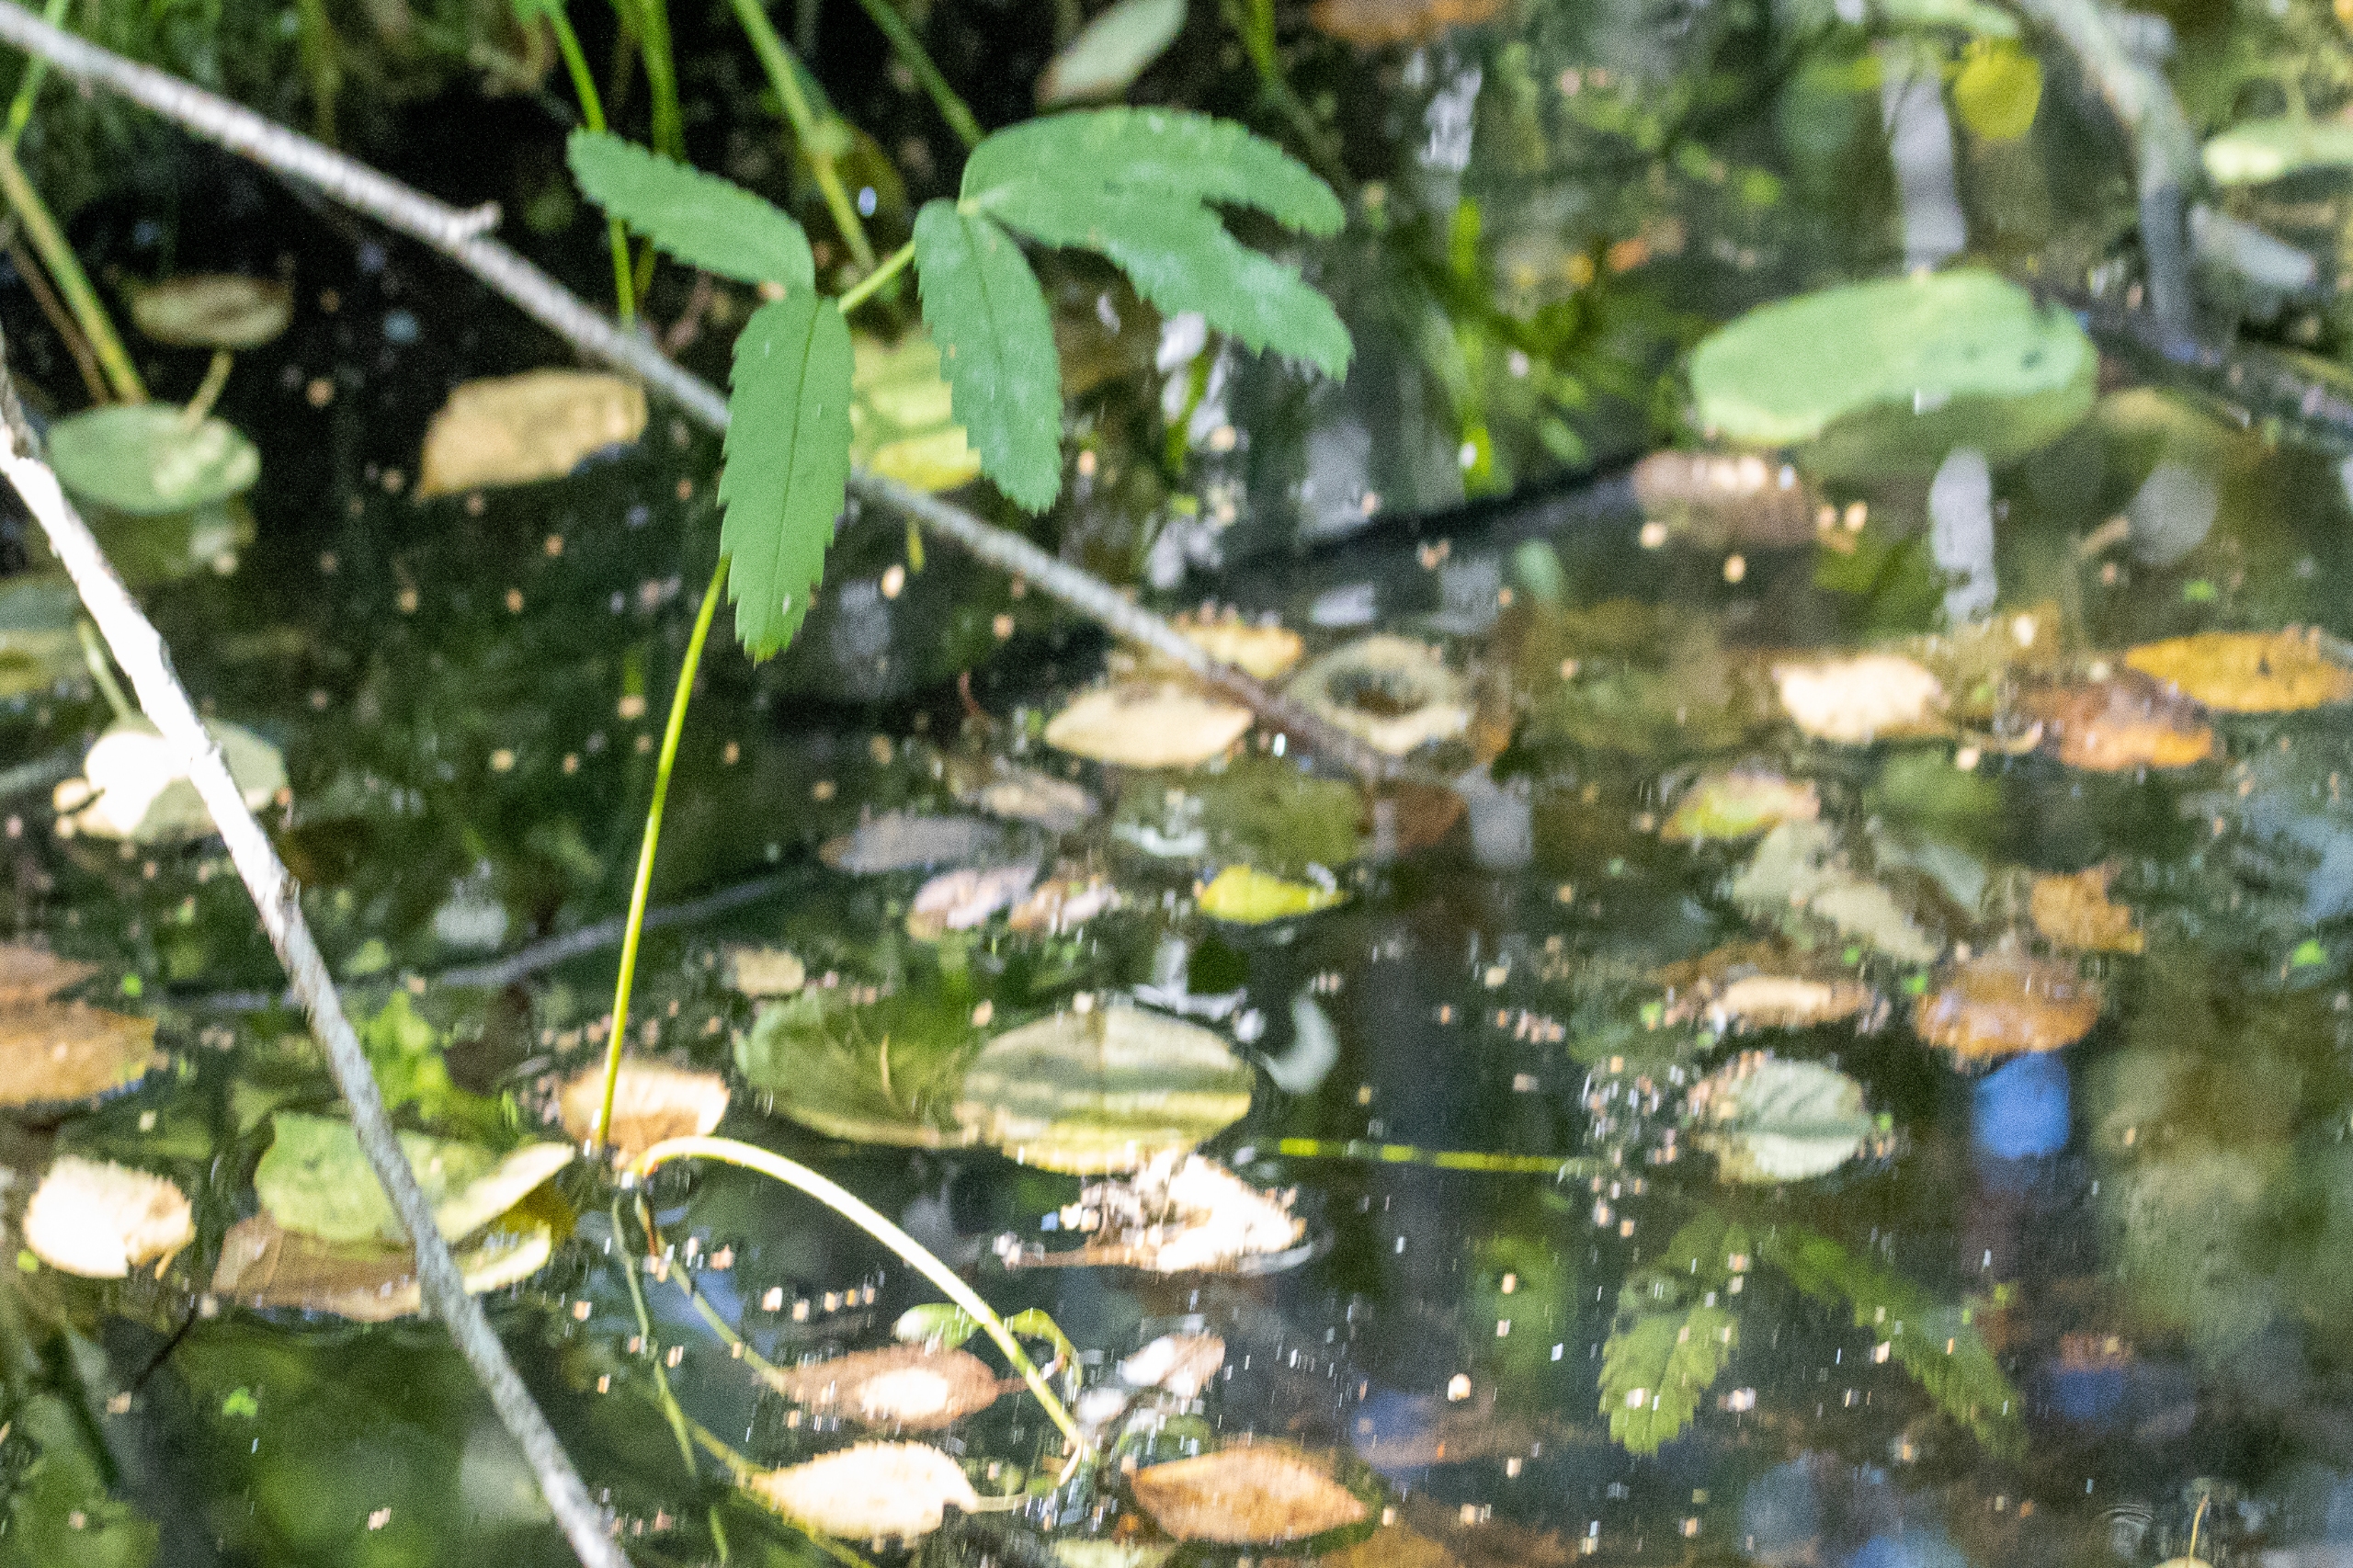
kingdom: Plantae
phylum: Tracheophyta
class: Magnoliopsida
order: Rosales
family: Rosaceae
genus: Comarum
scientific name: Comarum palustre
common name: Kragefod
